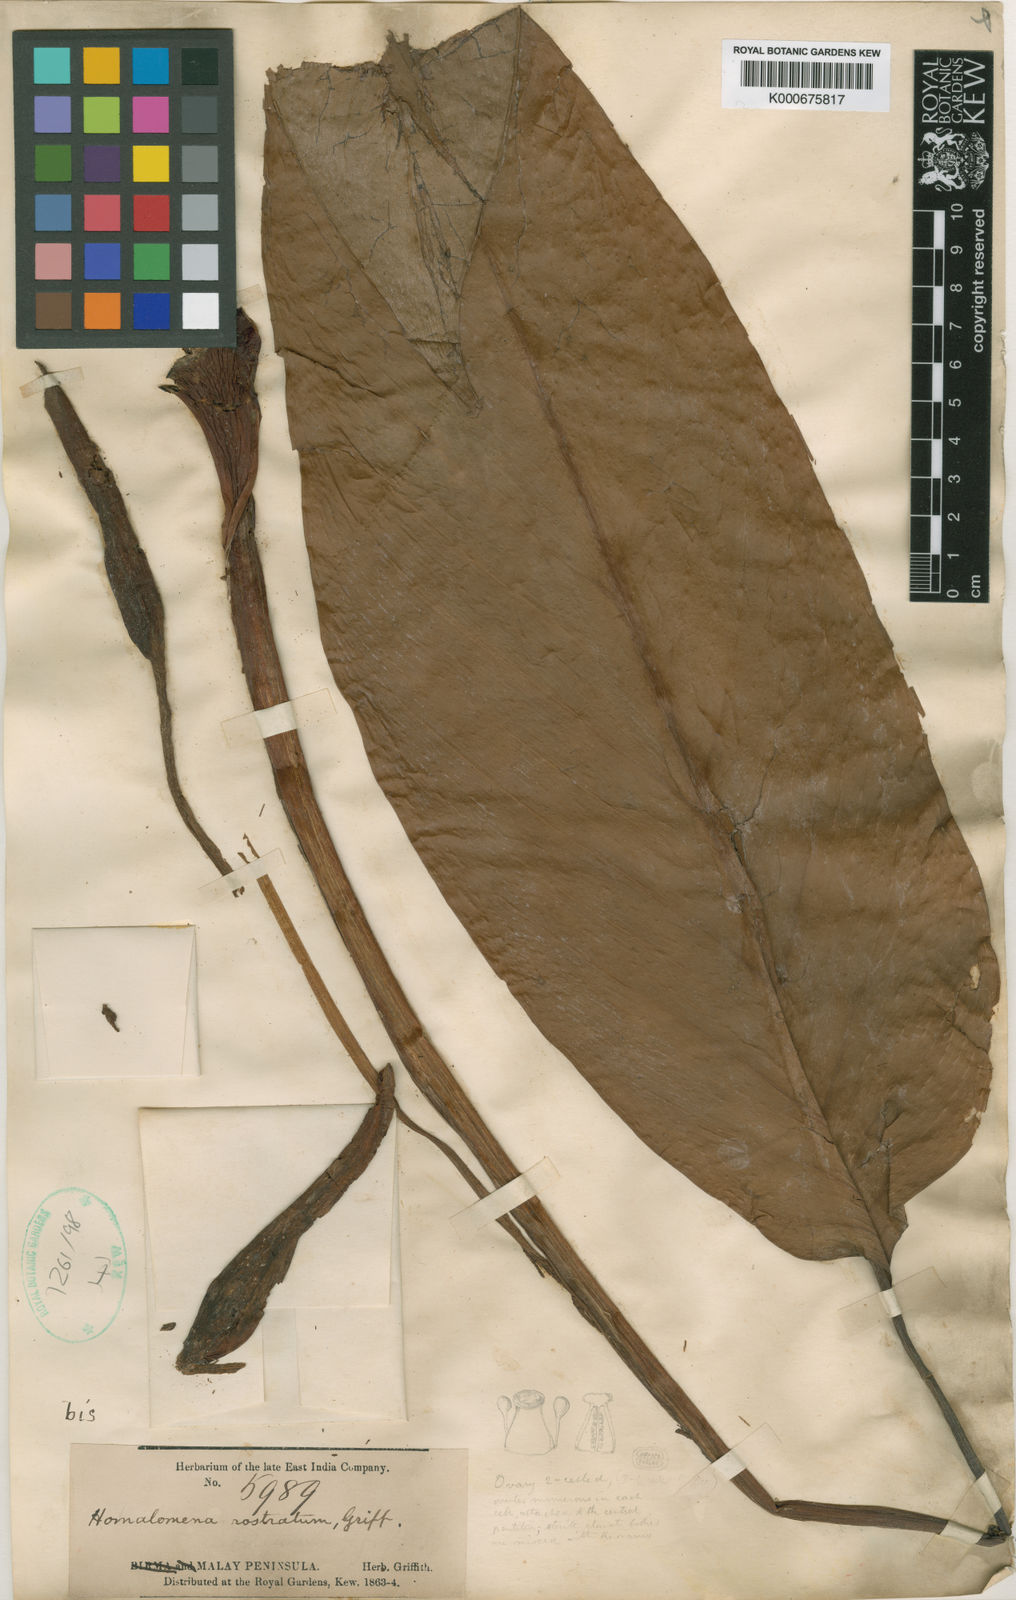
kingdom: Plantae
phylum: Tracheophyta
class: Liliopsida
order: Alismatales
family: Araceae
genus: Homalomena
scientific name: Homalomena rostrata
